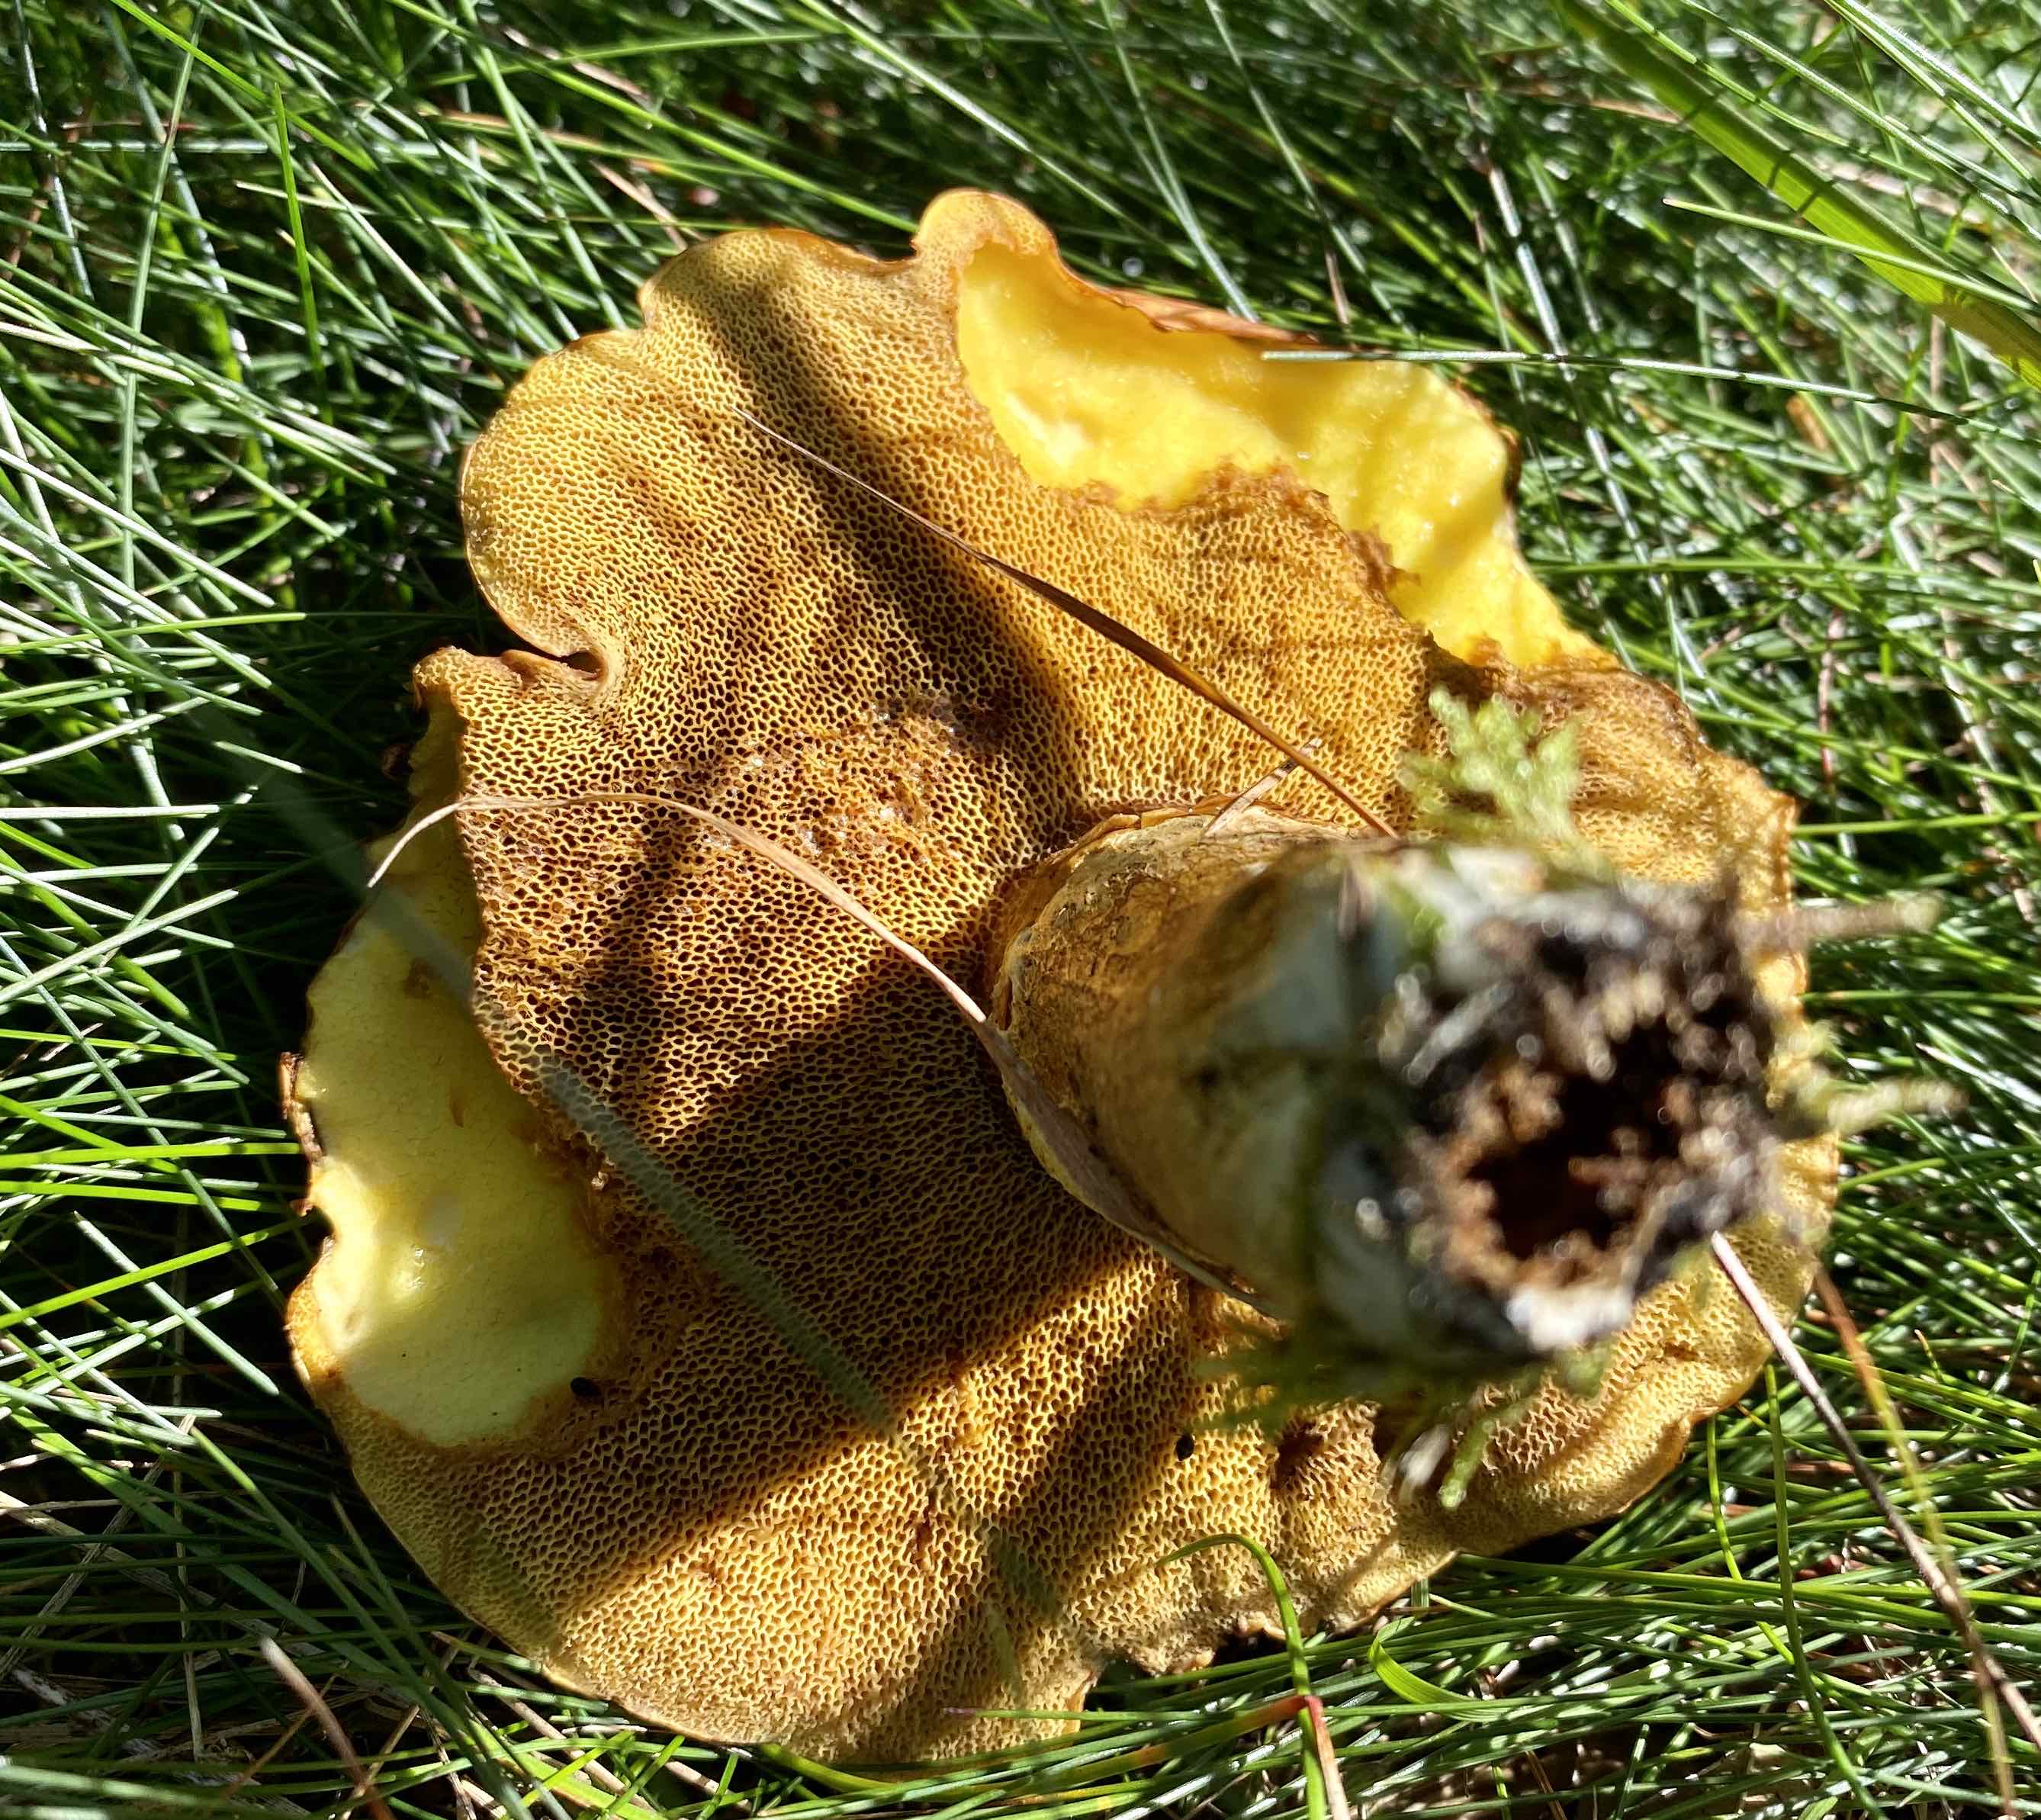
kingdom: Fungi
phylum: Basidiomycota
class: Agaricomycetes
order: Boletales
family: Suillaceae
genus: Suillus
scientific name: Suillus grevillei
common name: lærke-slimrørhat
